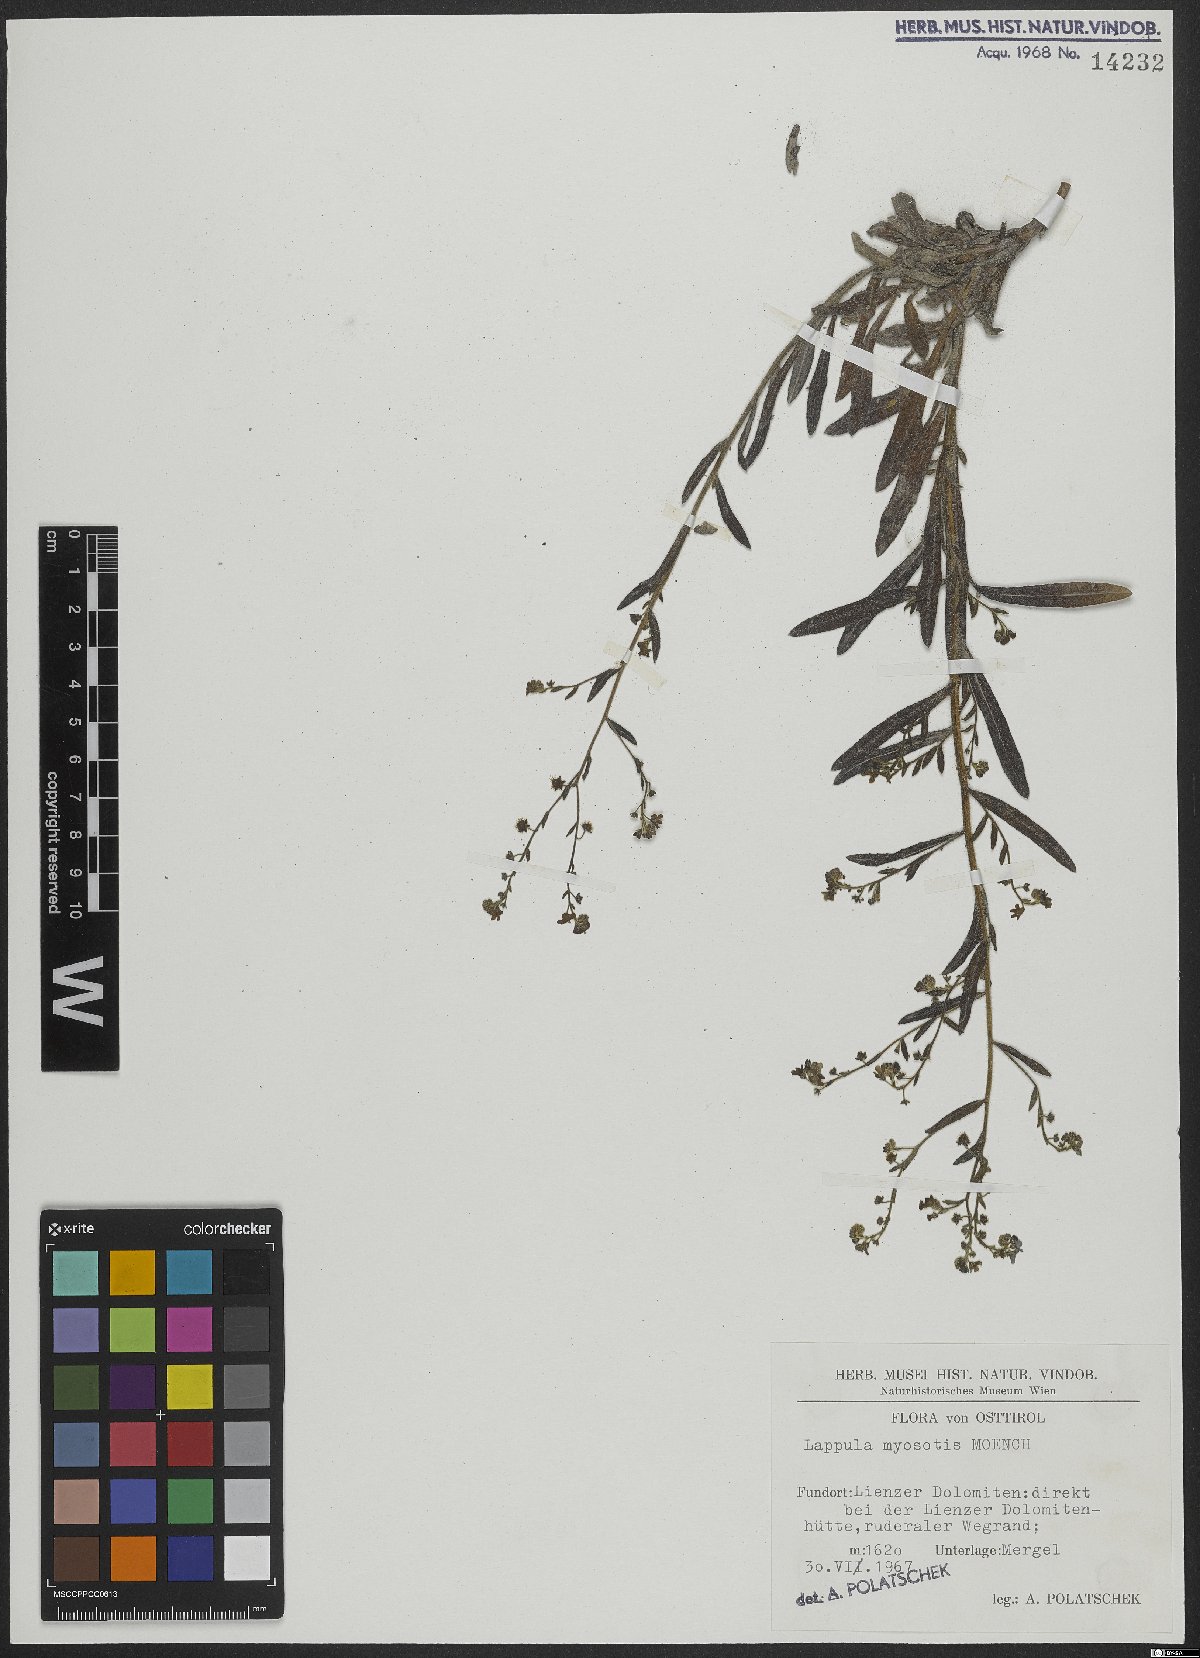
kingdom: Plantae
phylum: Tracheophyta
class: Magnoliopsida
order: Boraginales
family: Boraginaceae
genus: Lappula
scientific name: Lappula squarrosa
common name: European stickseed
